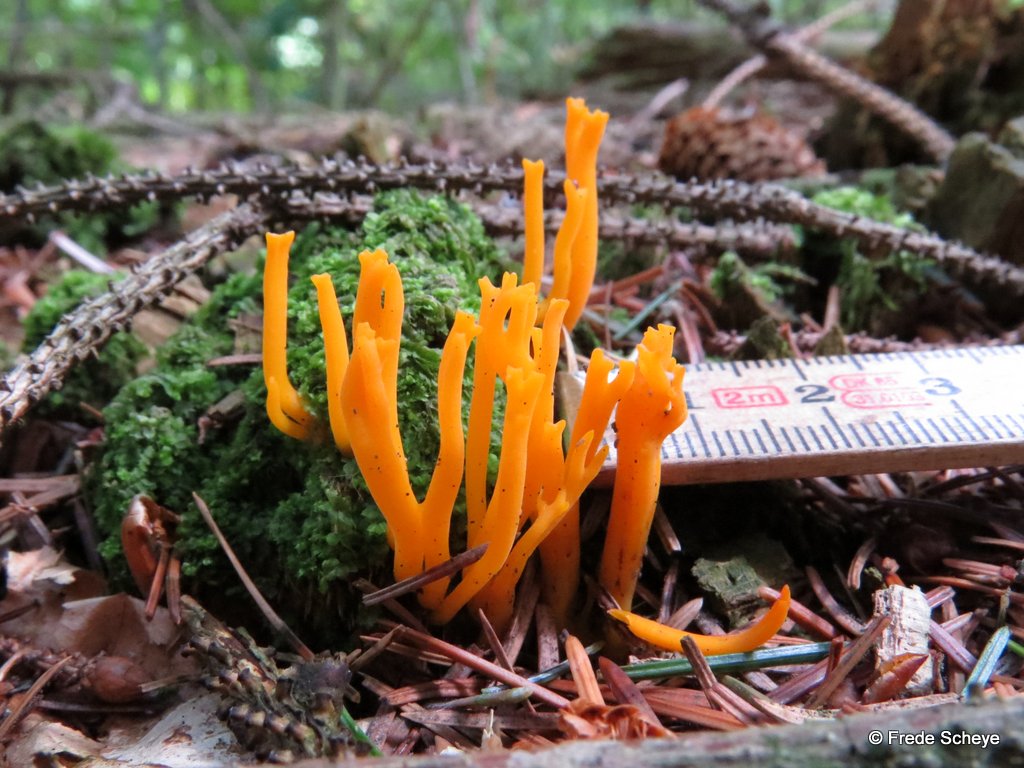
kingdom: Fungi
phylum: Basidiomycota
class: Dacrymycetes
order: Dacrymycetales
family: Dacrymycetaceae
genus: Calocera
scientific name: Calocera viscosa
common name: almindelig guldgaffel
